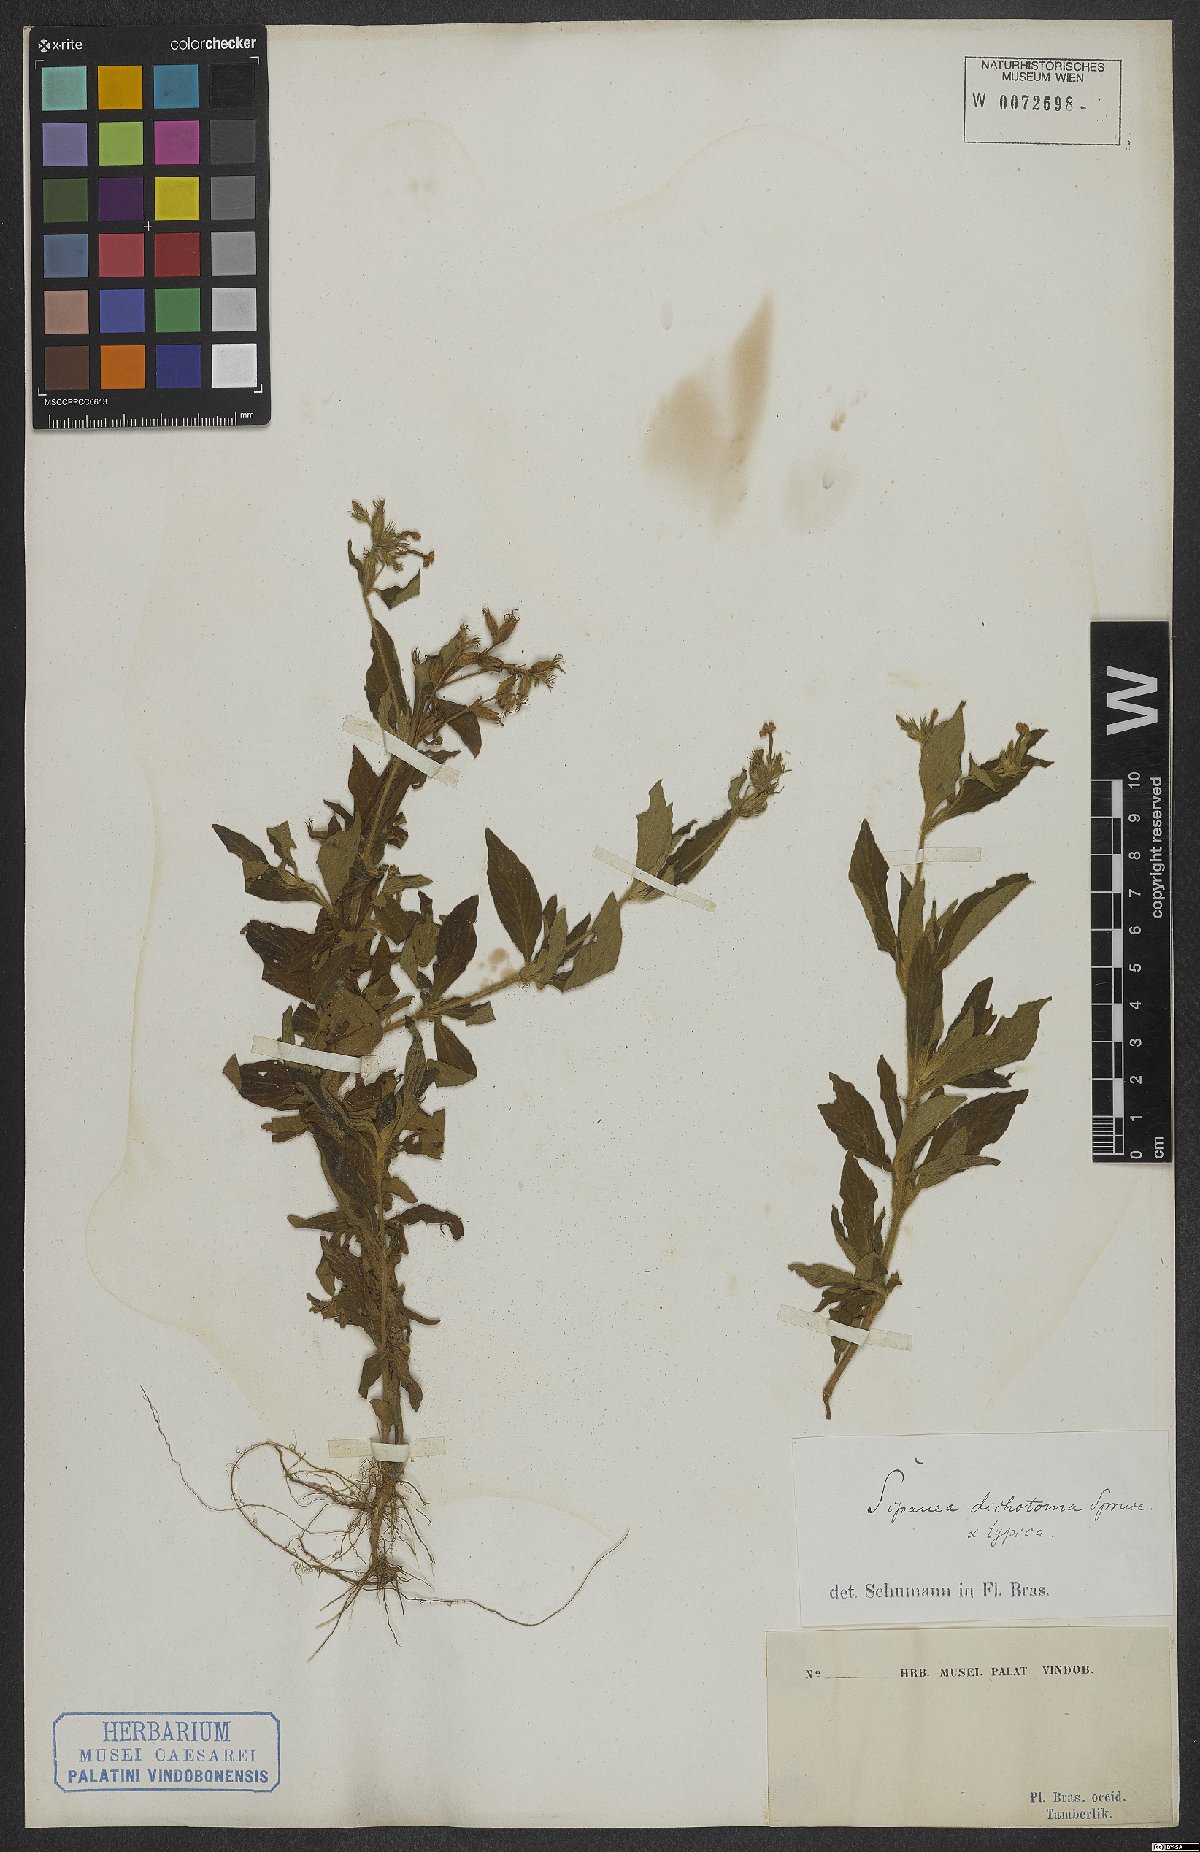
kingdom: Plantae
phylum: Tracheophyta
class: Magnoliopsida
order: Gentianales
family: Rubiaceae
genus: Sipanea
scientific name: Sipanea pratensis
